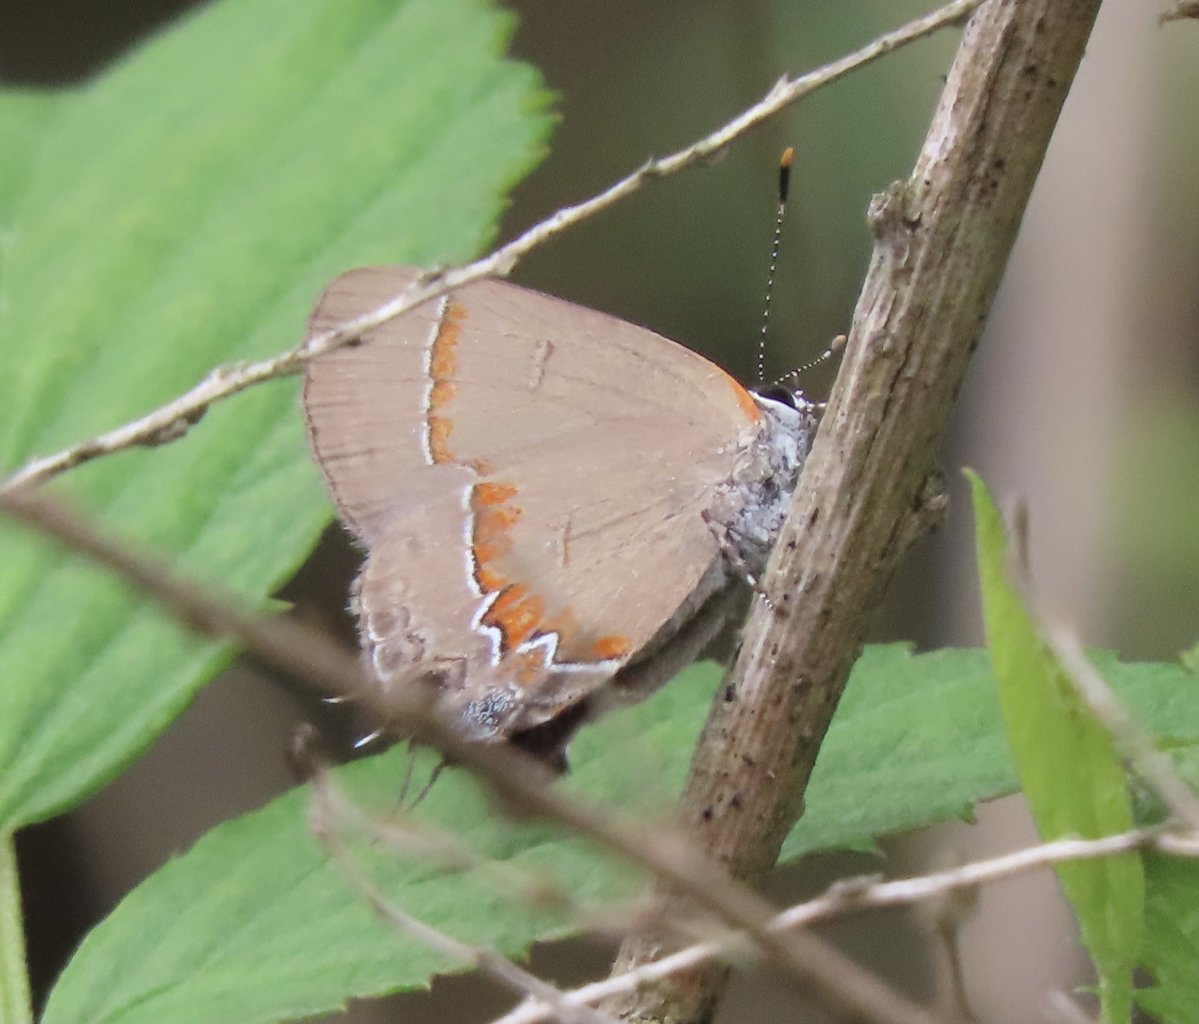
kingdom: Animalia
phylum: Arthropoda
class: Insecta
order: Lepidoptera
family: Lycaenidae
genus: Calycopis
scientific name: Calycopis cecrops
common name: Red-banded Hairstreak
